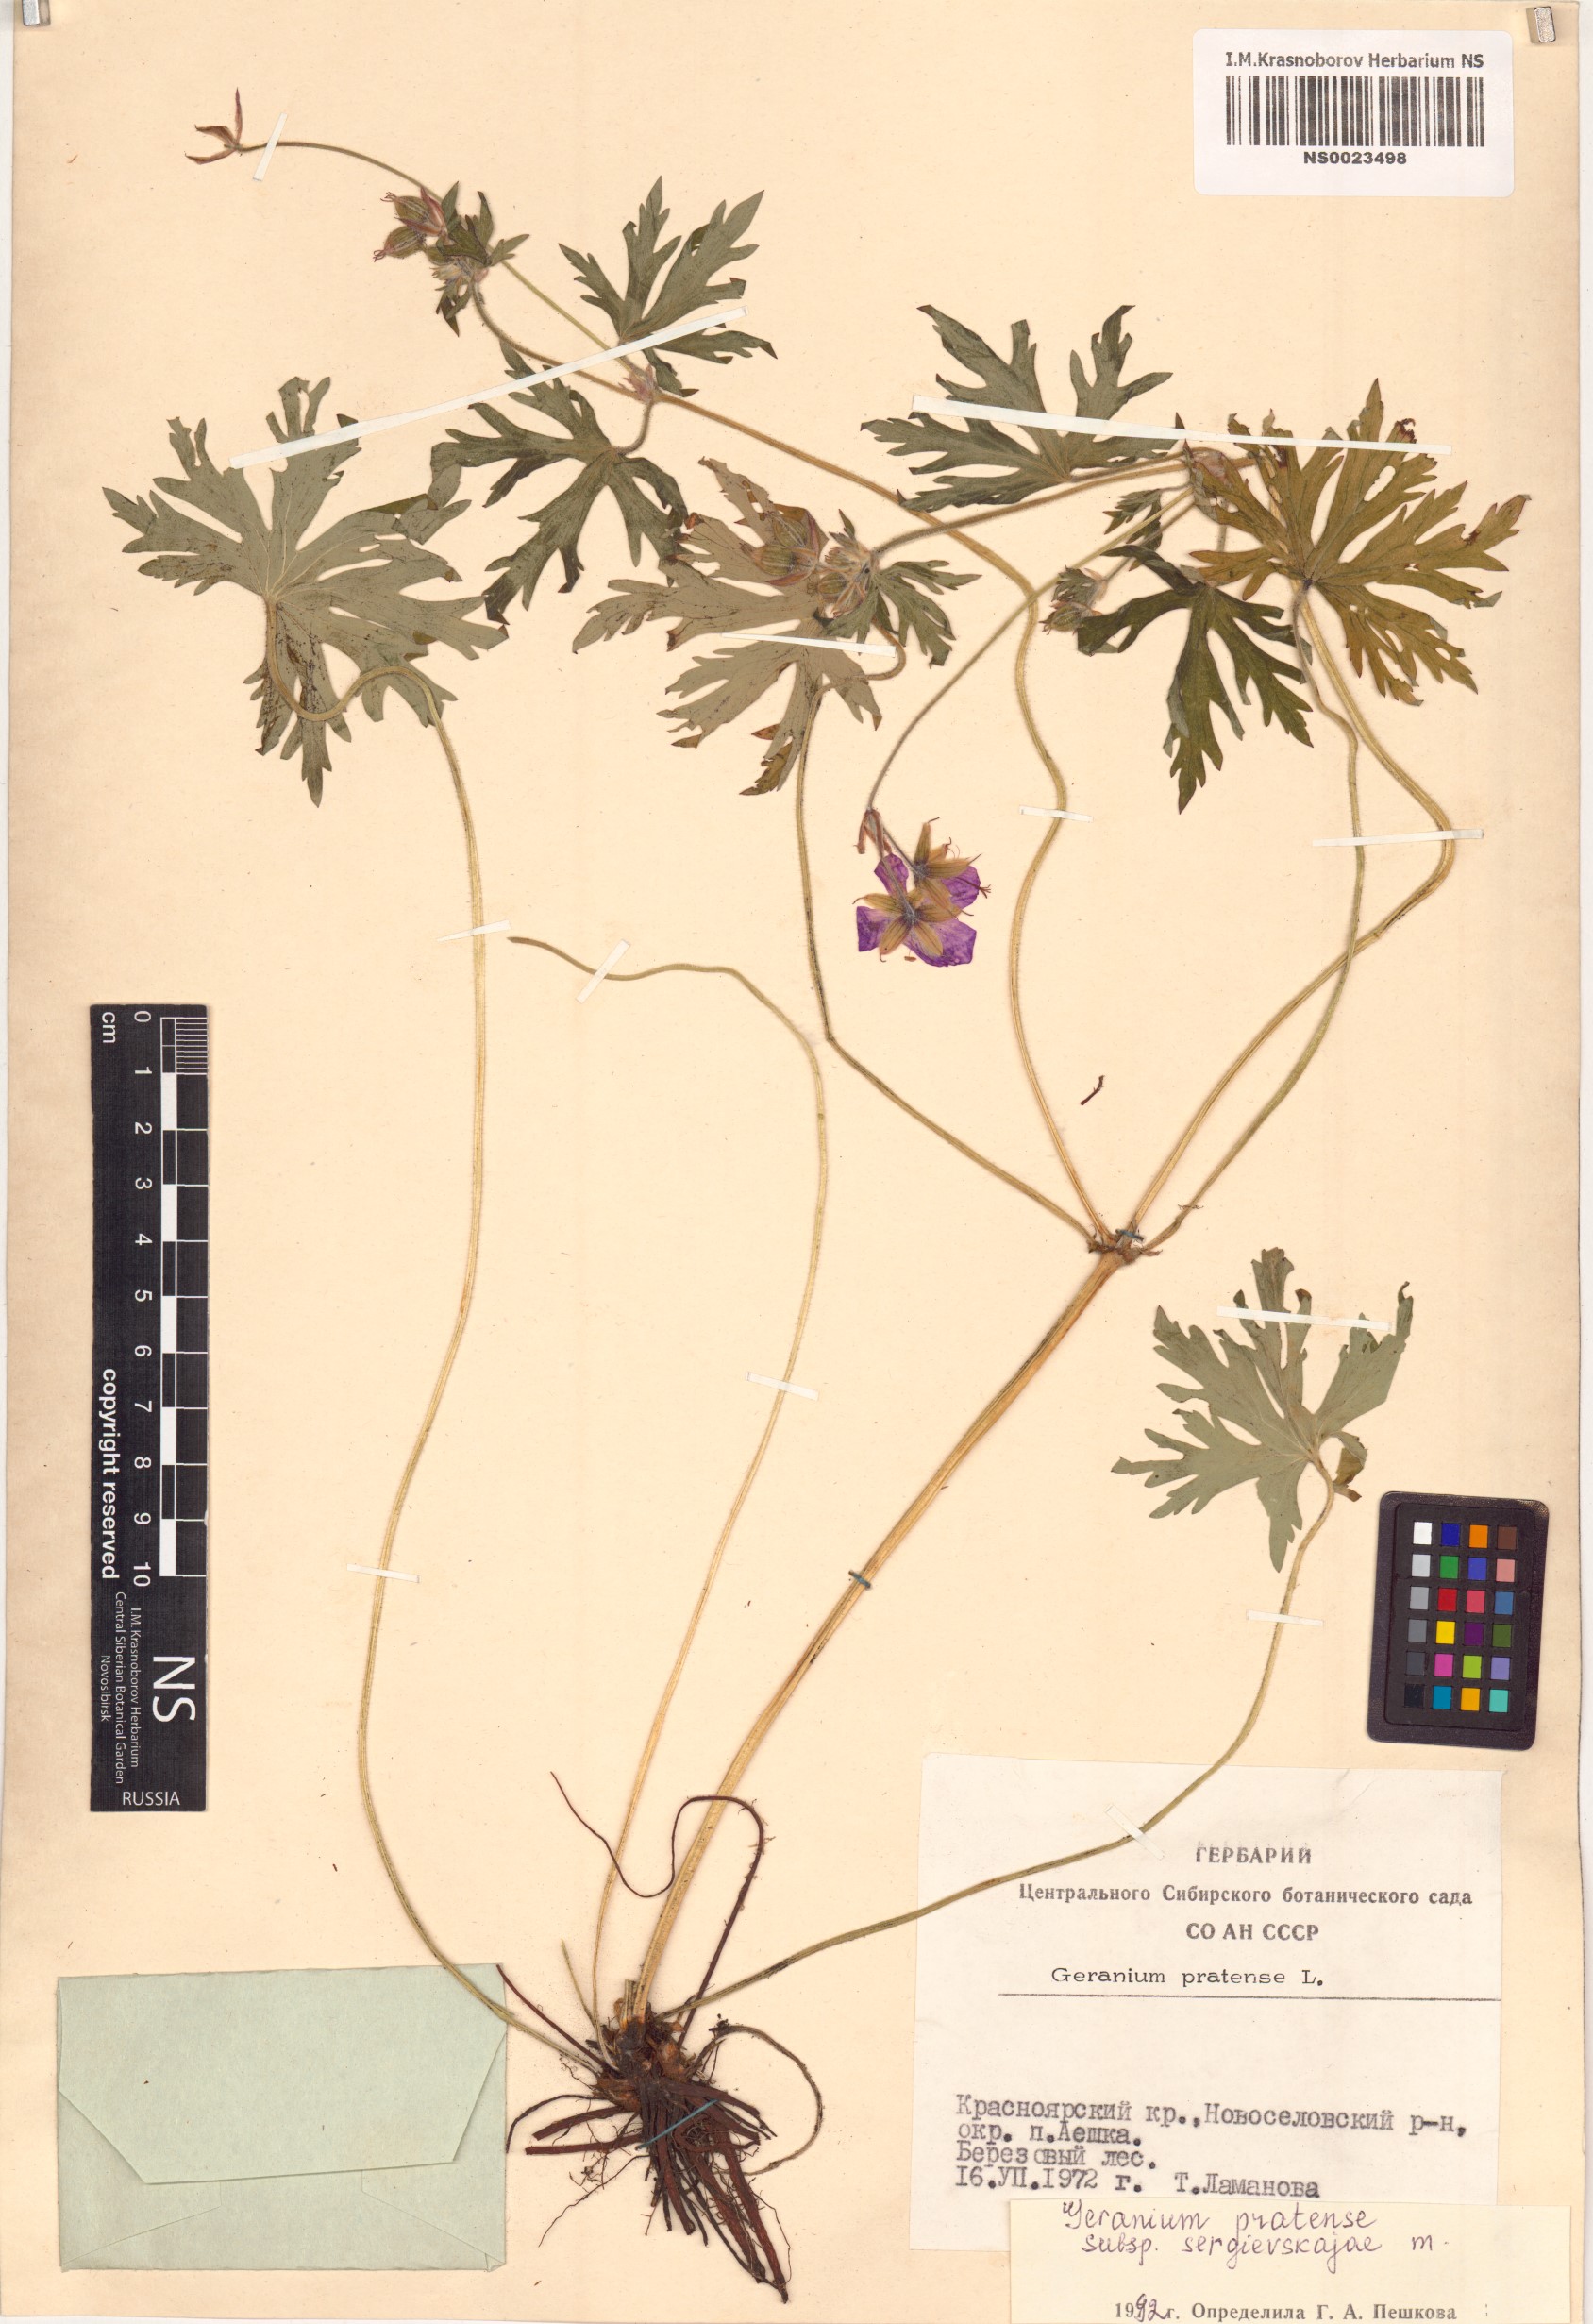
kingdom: Plantae
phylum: Tracheophyta
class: Magnoliopsida
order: Geraniales
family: Geraniaceae
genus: Geranium
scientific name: Geranium pratense
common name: Meadow crane's-bill
